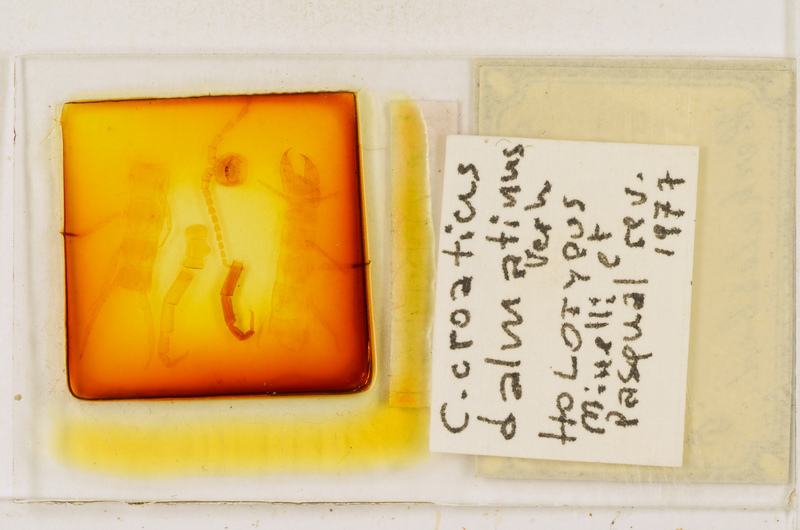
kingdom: Animalia
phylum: Arthropoda
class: Chilopoda
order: Scolopendromorpha
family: Cryptopidae
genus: Cryptops
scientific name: Cryptops croaticus
